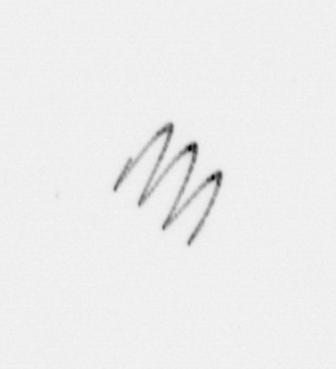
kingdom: Chromista
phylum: Ochrophyta
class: Bacillariophyceae
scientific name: Bacillariophyceae
